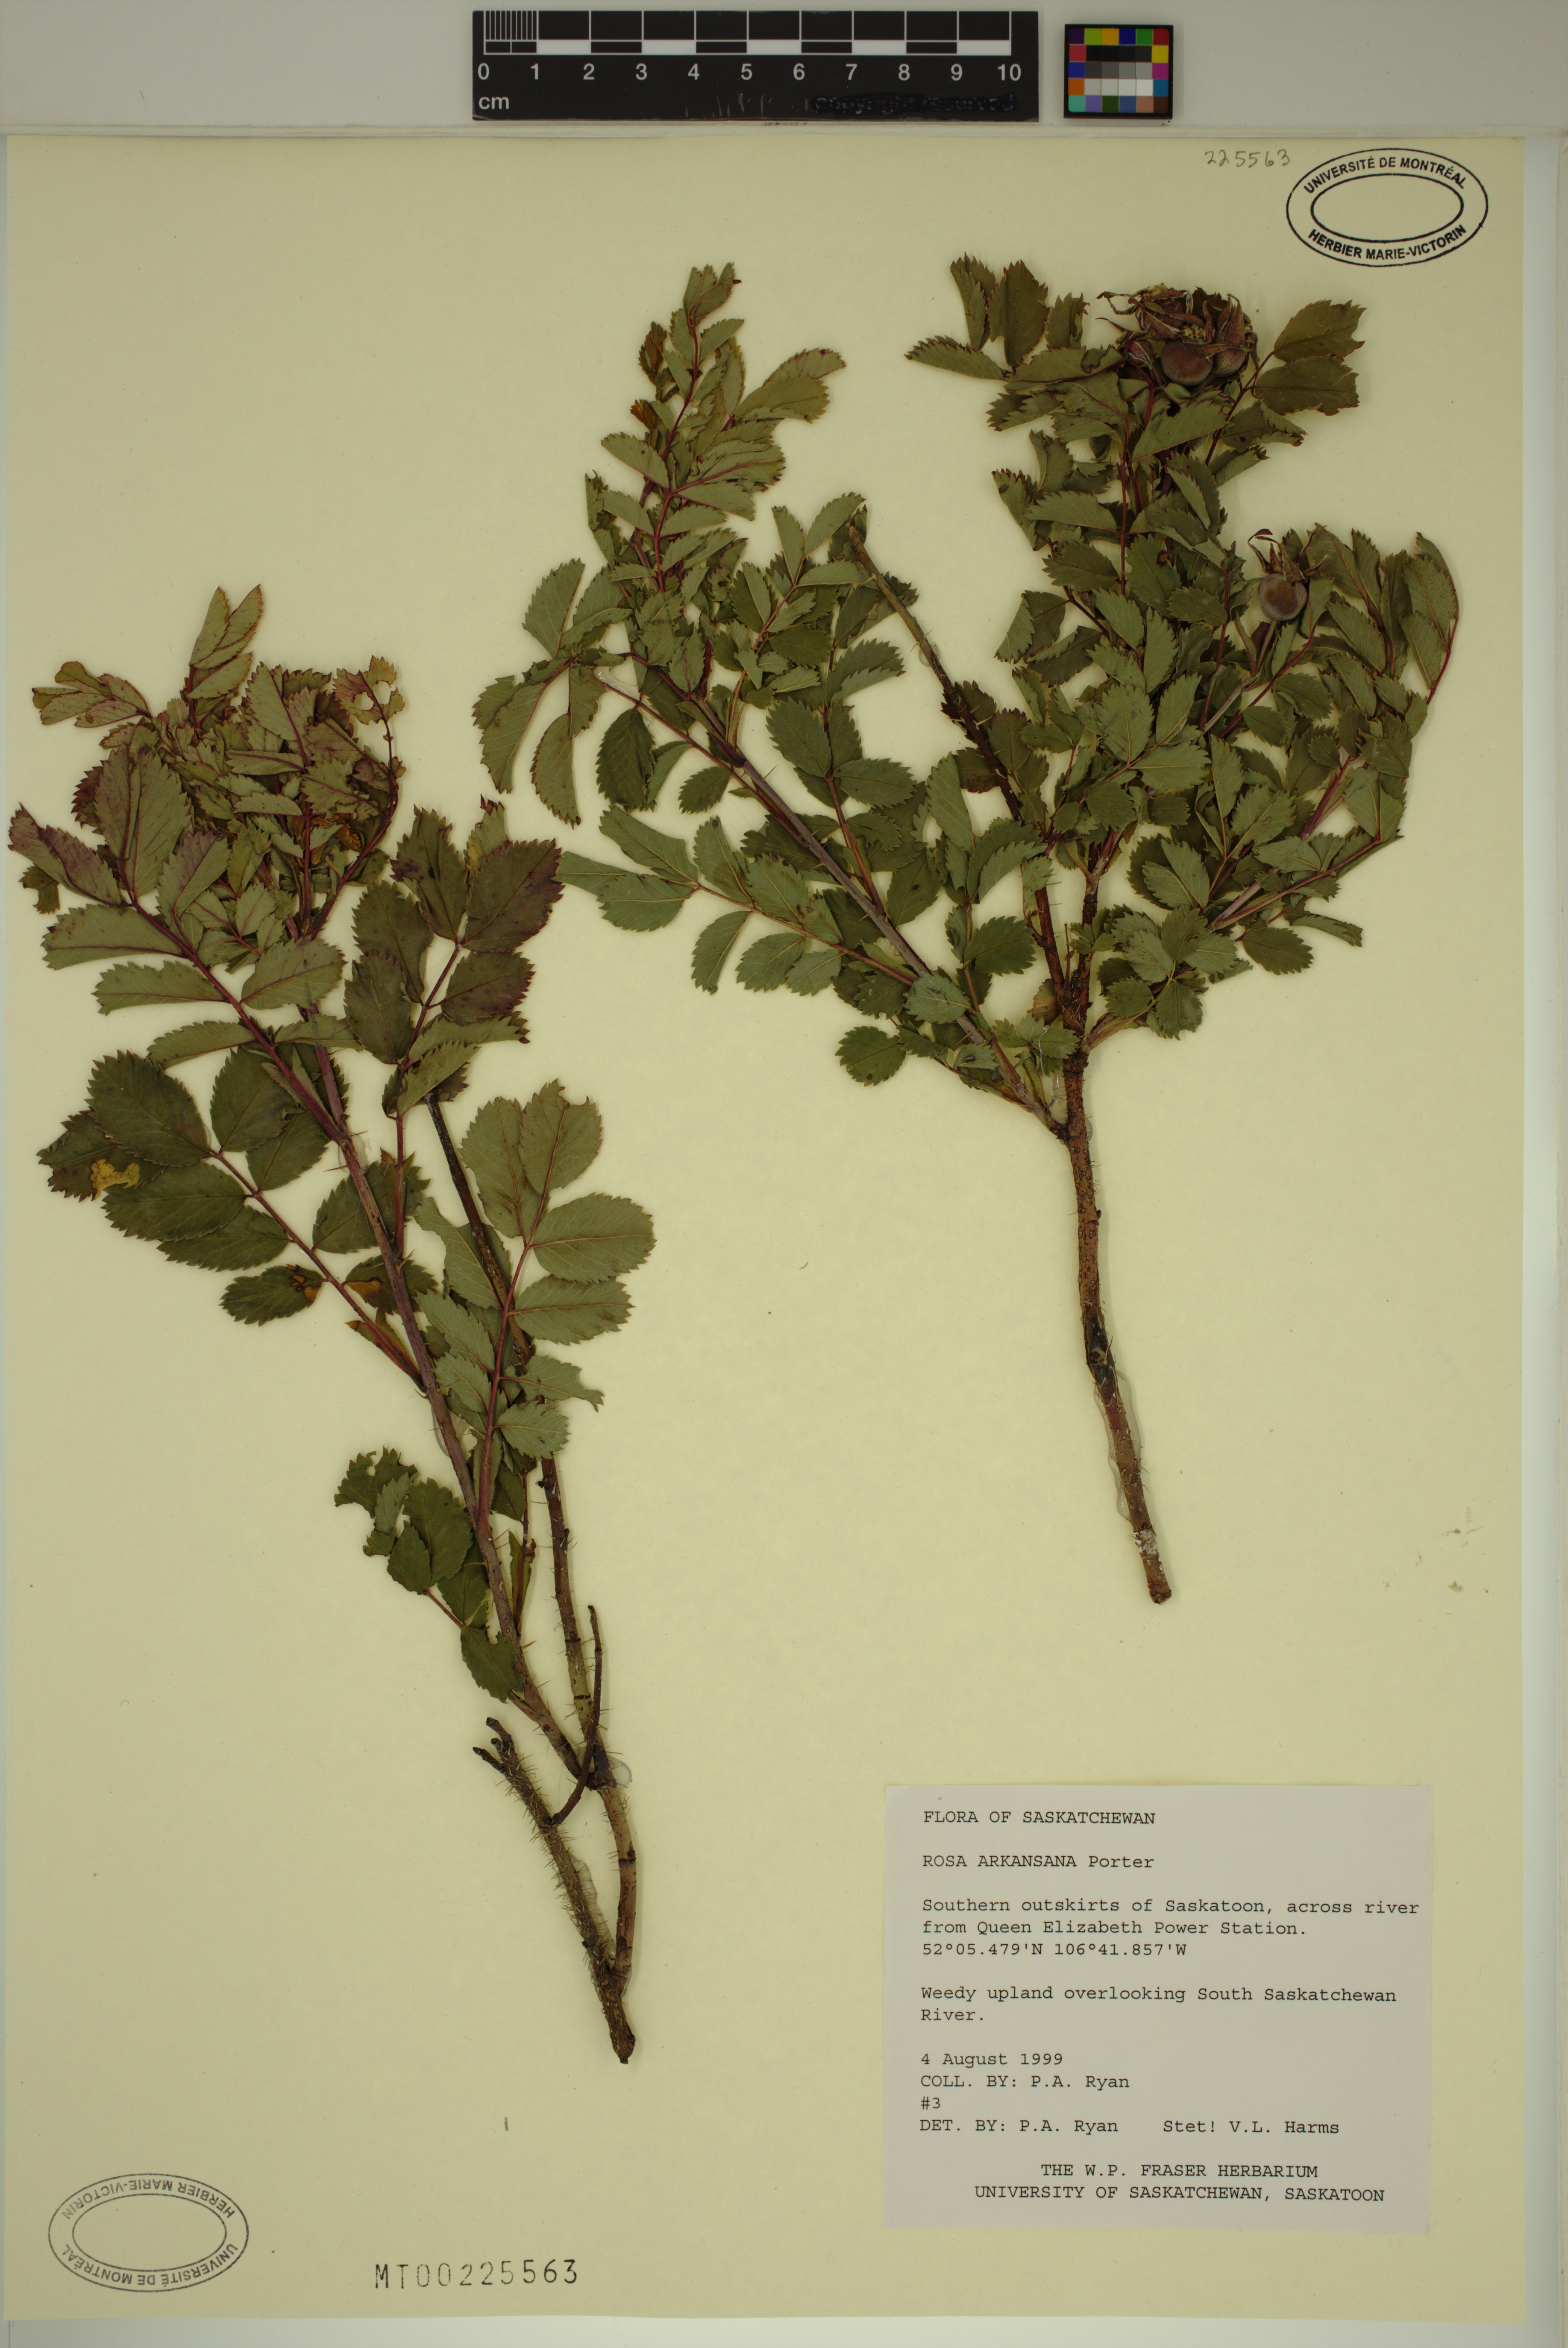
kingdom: Plantae
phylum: Tracheophyta
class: Magnoliopsida
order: Rosales
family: Rosaceae
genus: Rosa
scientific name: Rosa arkansana
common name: Prairie rose
